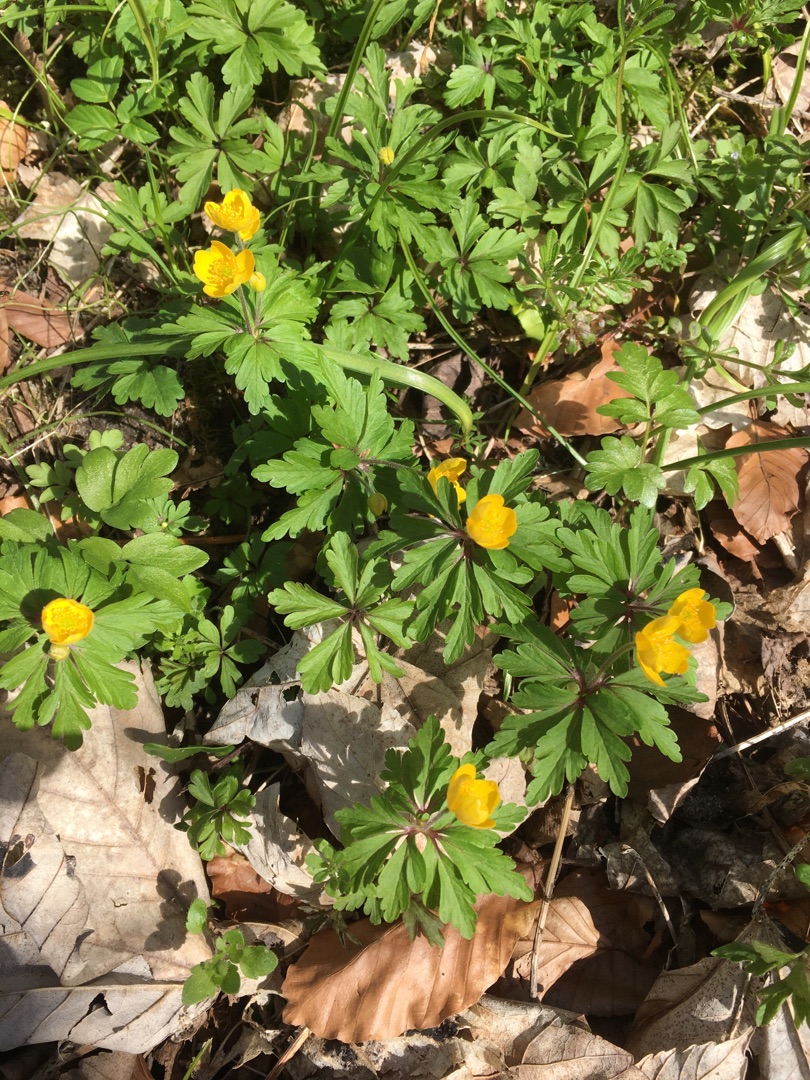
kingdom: Plantae
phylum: Tracheophyta
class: Magnoliopsida
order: Ranunculales
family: Ranunculaceae
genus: Anemone
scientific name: Anemone ranunculoides
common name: Gul anemone
